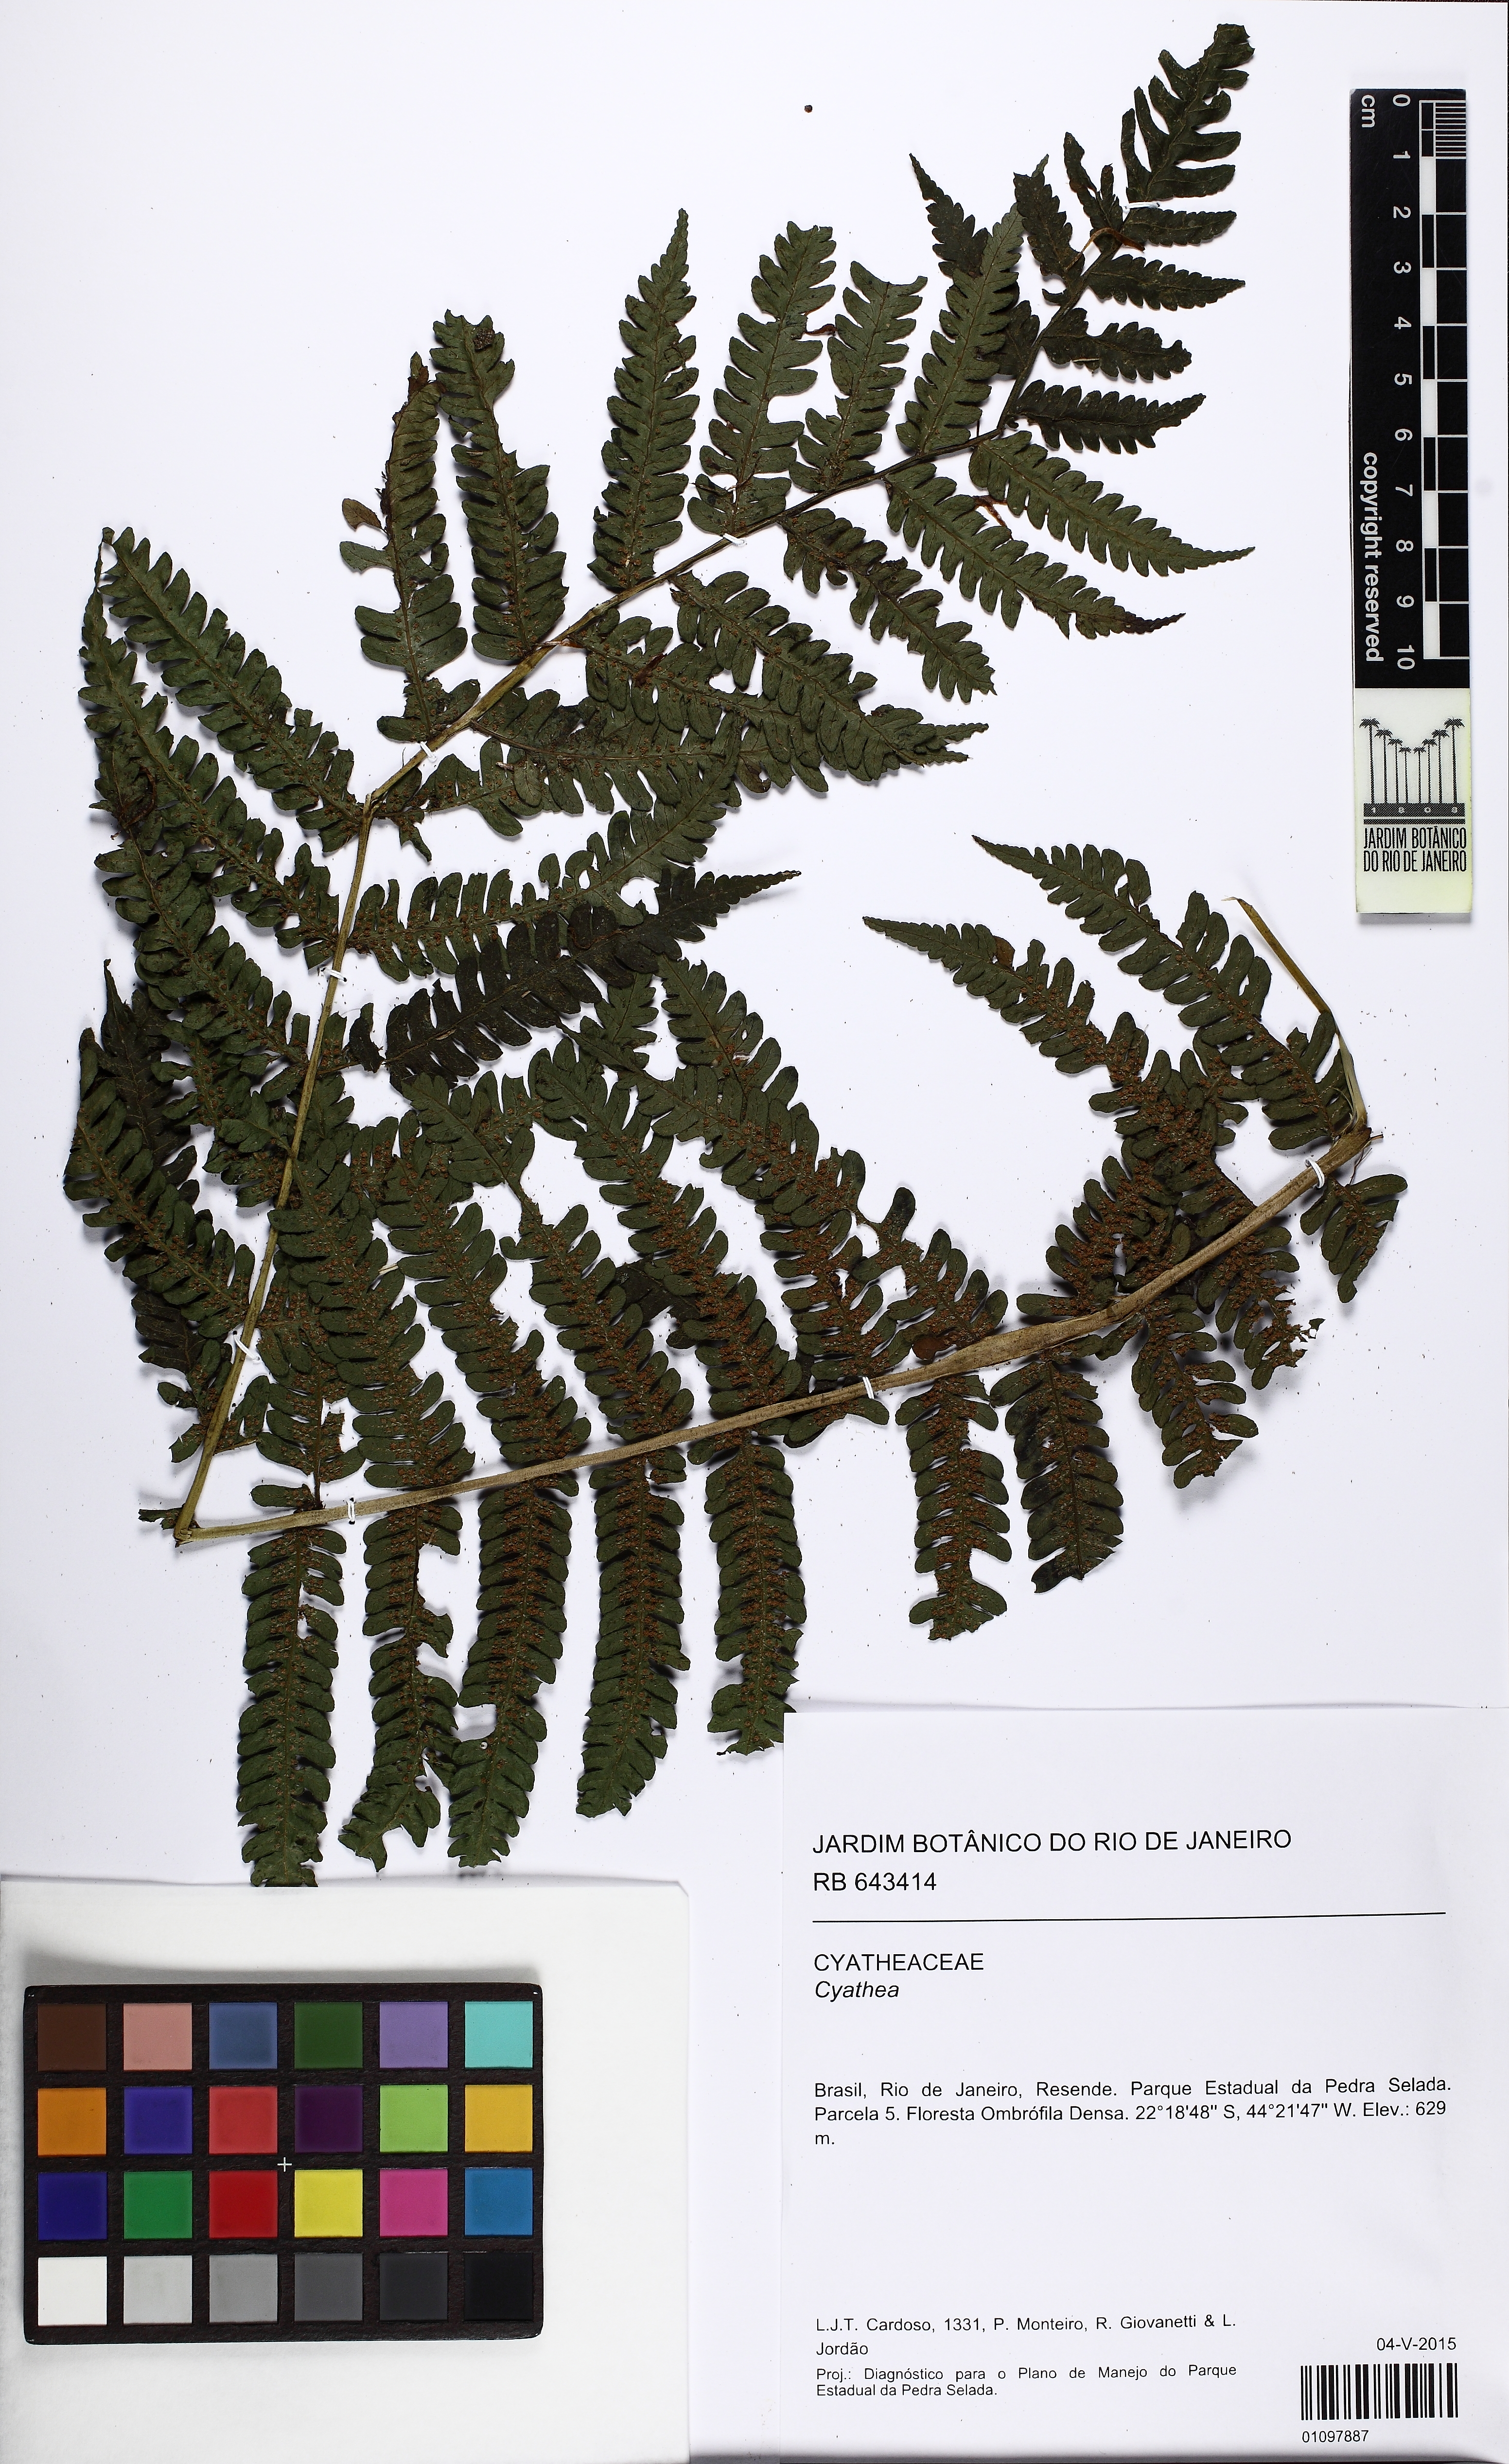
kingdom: Plantae
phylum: Tracheophyta
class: Polypodiopsida
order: Cyatheales
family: Cyatheaceae
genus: Cyathea
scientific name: Cyathea
